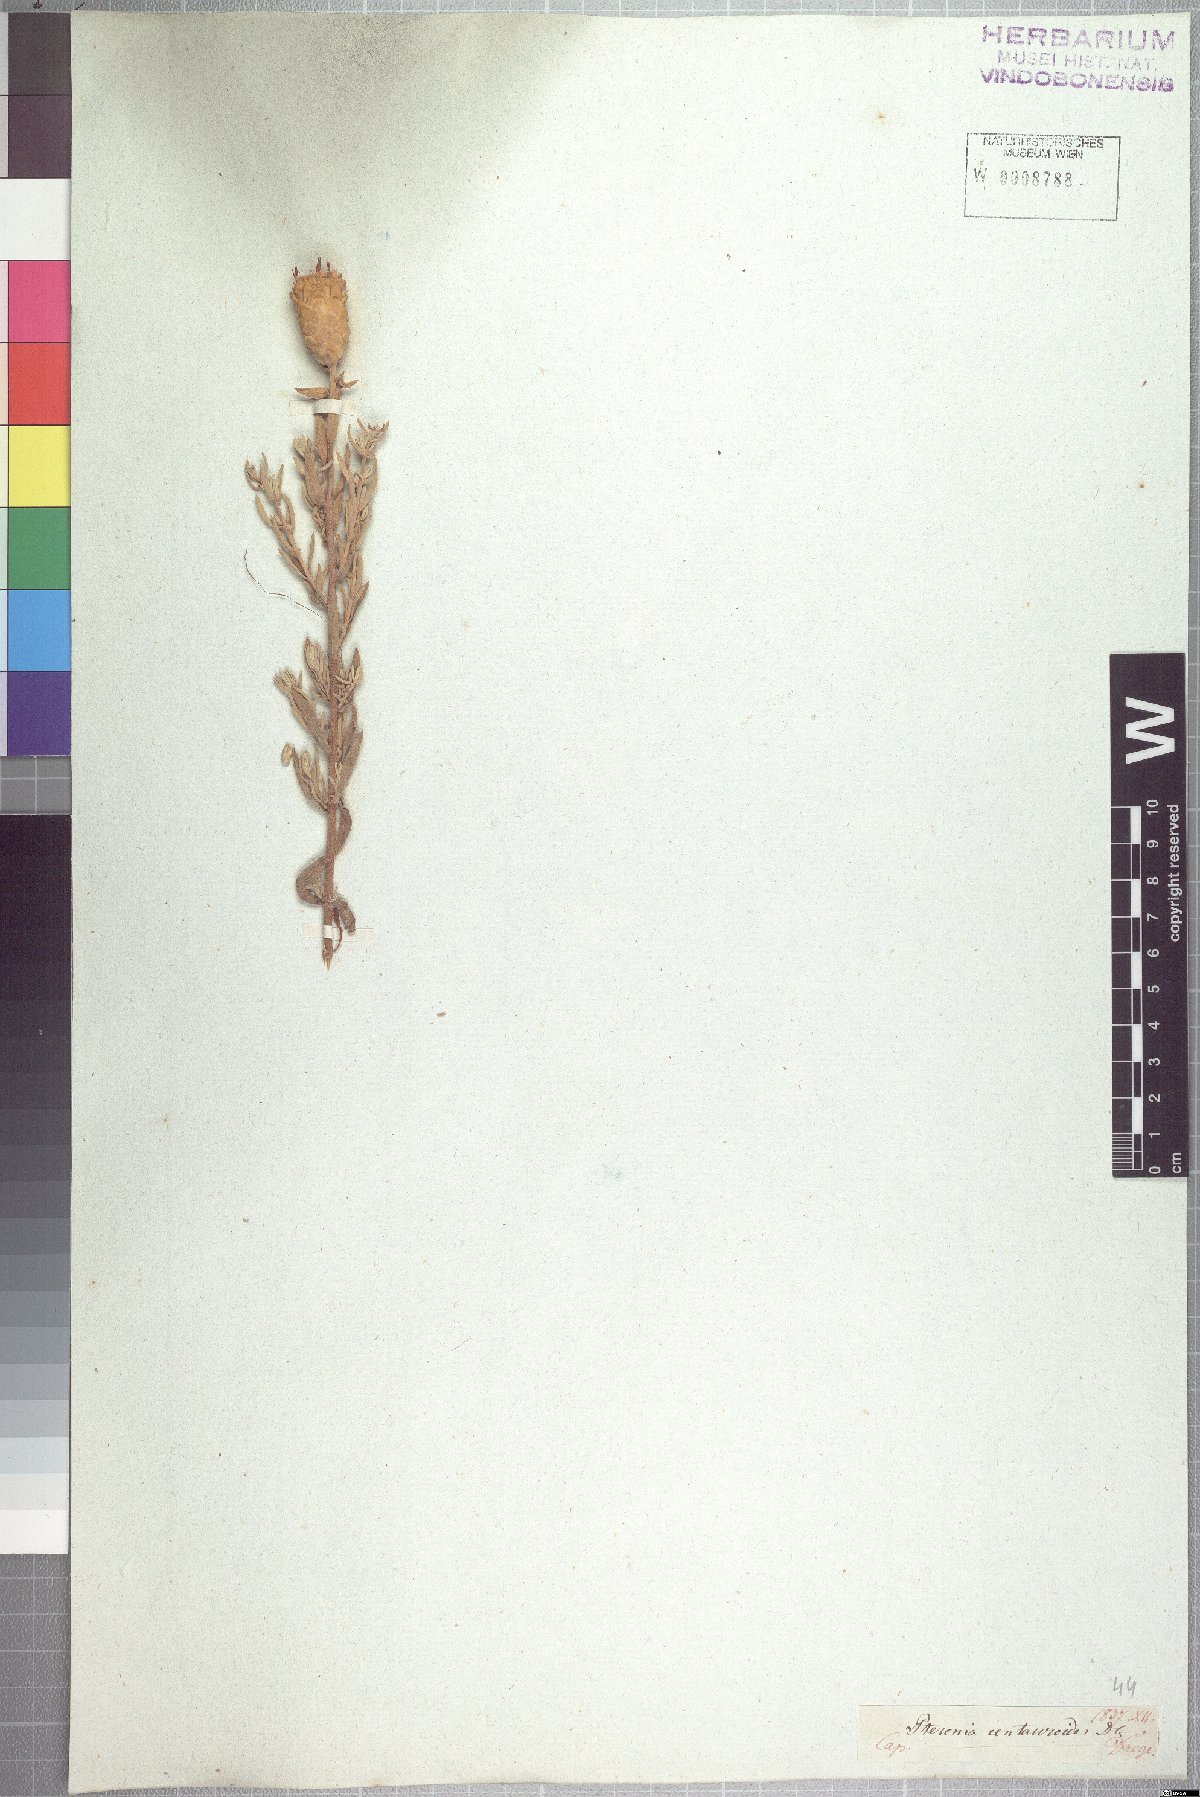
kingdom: Plantae
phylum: Tracheophyta
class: Magnoliopsida
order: Asterales
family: Asteraceae
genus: Pteronia
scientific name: Pteronia centauroides
